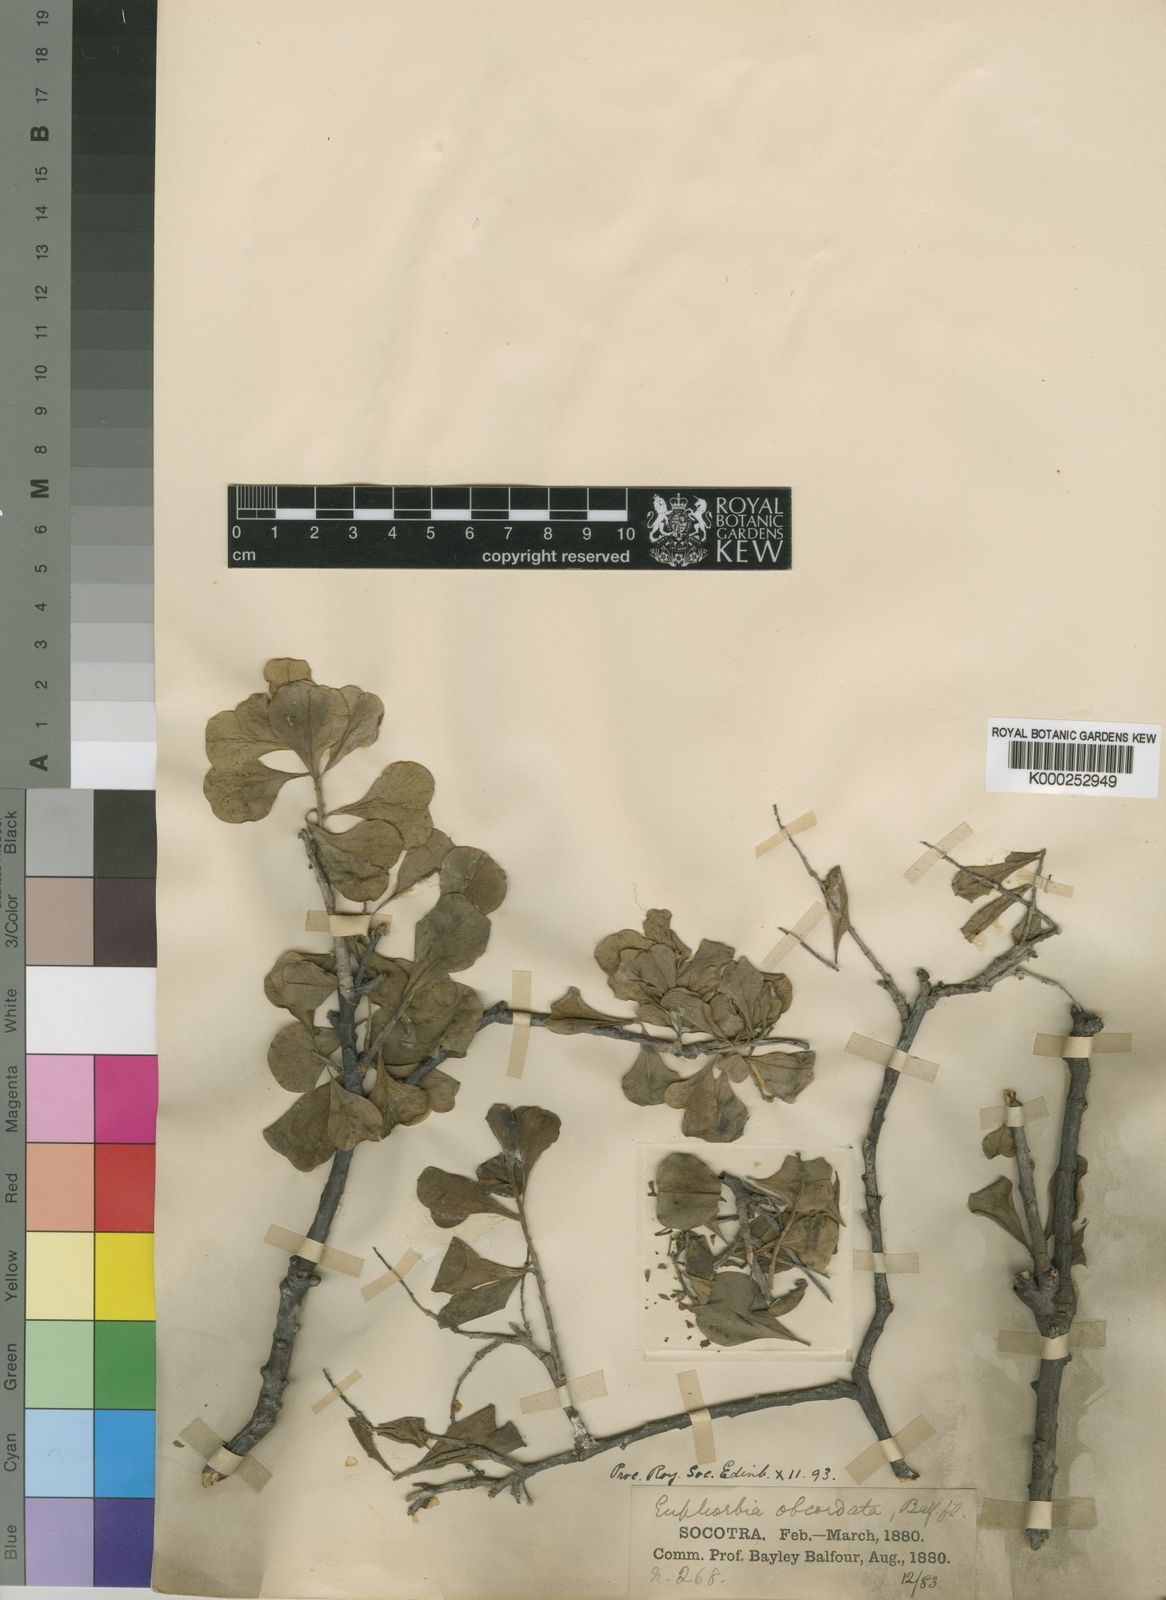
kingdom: Plantae
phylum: Tracheophyta
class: Magnoliopsida
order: Malpighiales
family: Euphorbiaceae
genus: Euphorbia
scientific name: Euphorbia obcordata
